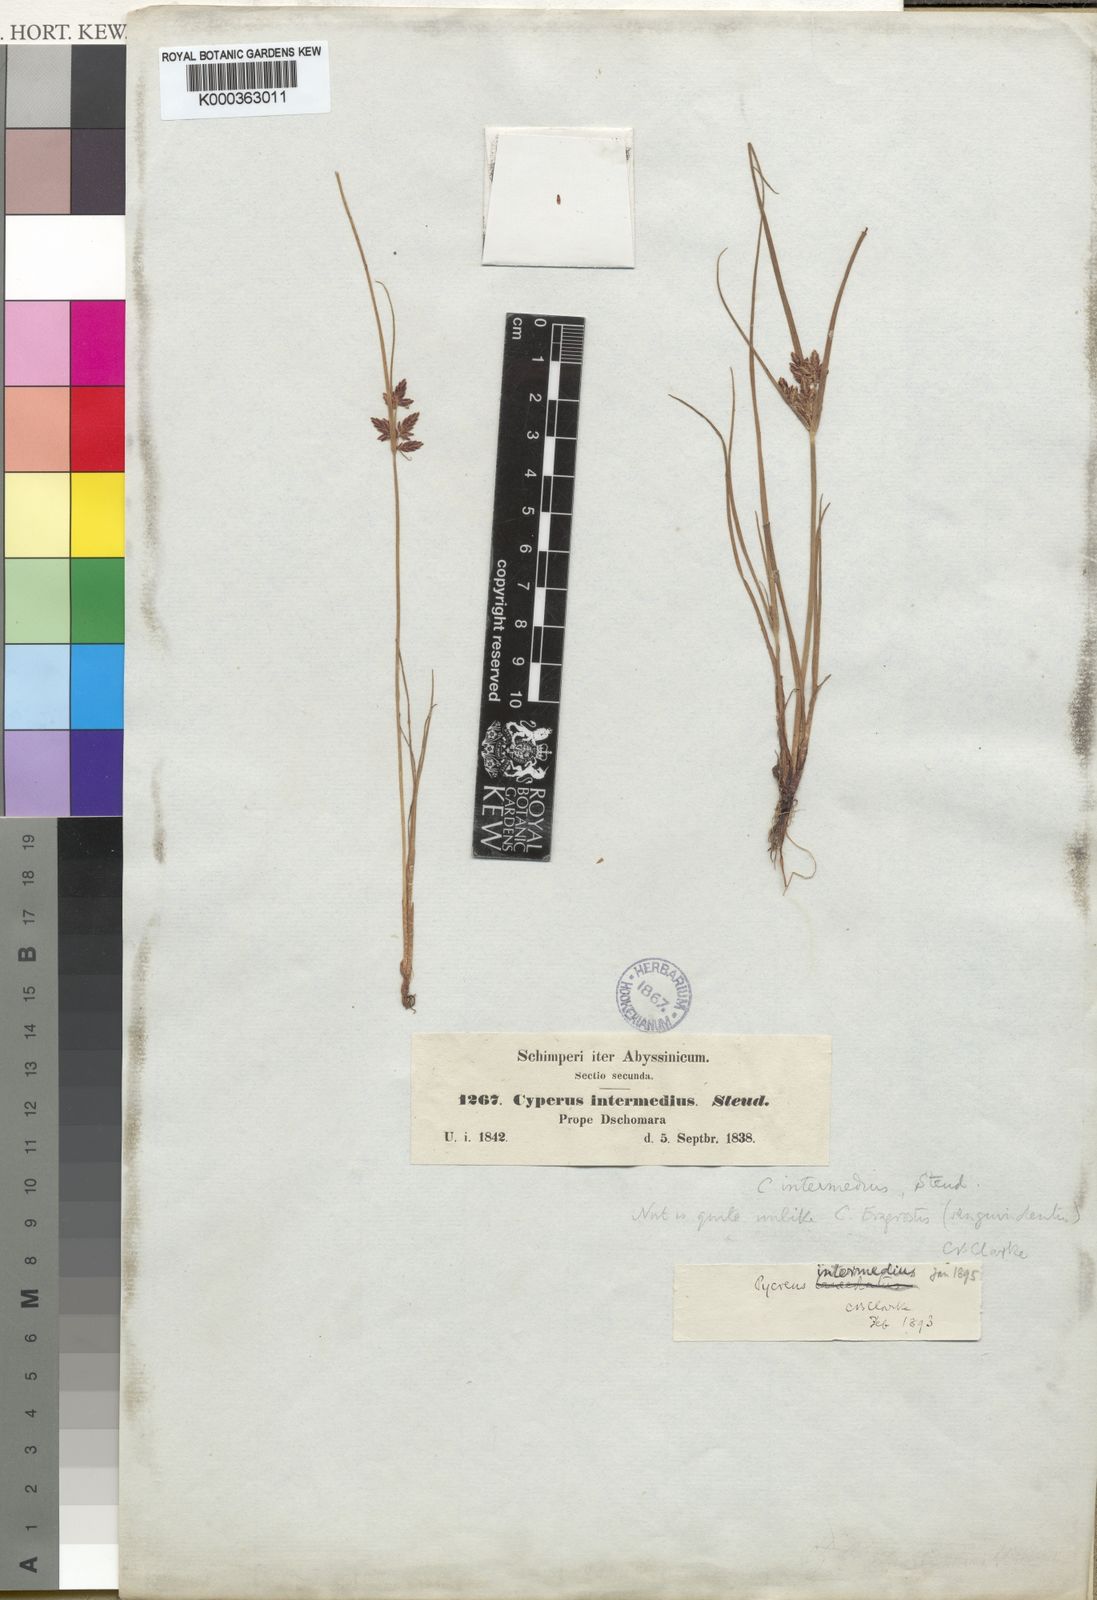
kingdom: Plantae
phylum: Tracheophyta
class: Liliopsida
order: Poales
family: Cyperaceae
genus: Cyperus
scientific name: Cyperus flavescens
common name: Yellow galingale
